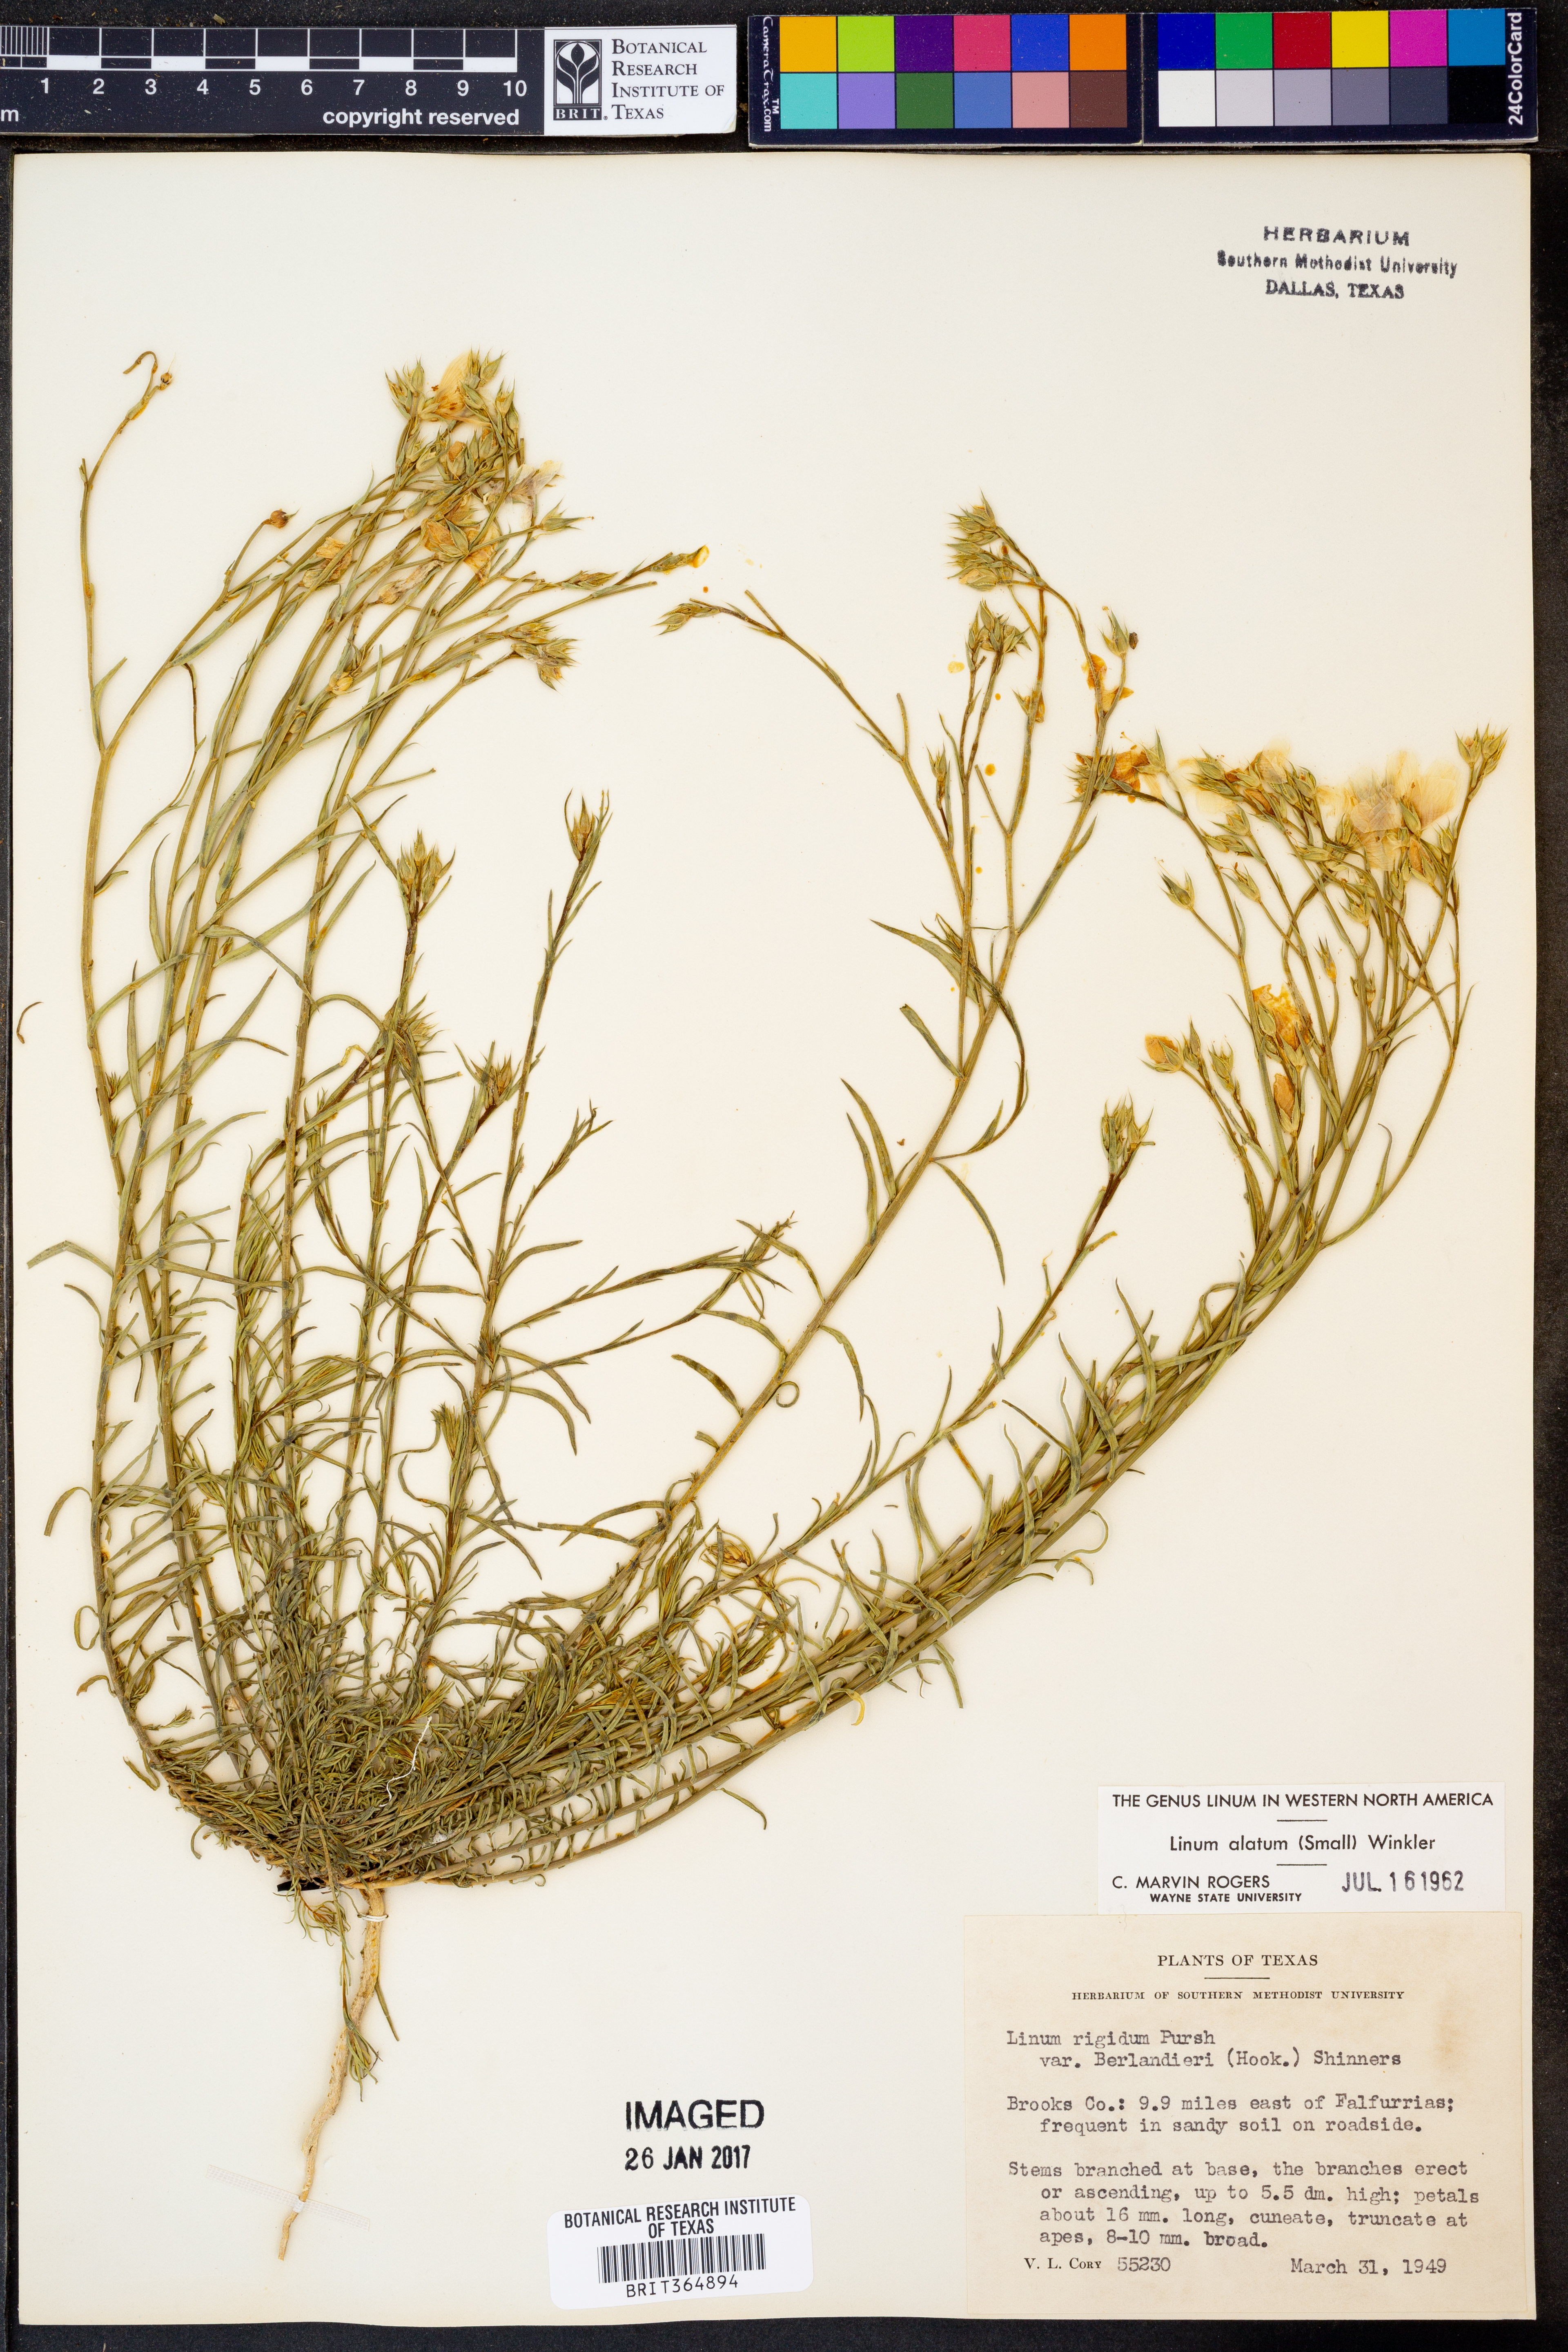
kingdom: Plantae
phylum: Tracheophyta
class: Magnoliopsida
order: Malpighiales
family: Linaceae
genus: Linum
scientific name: Linum alatum
